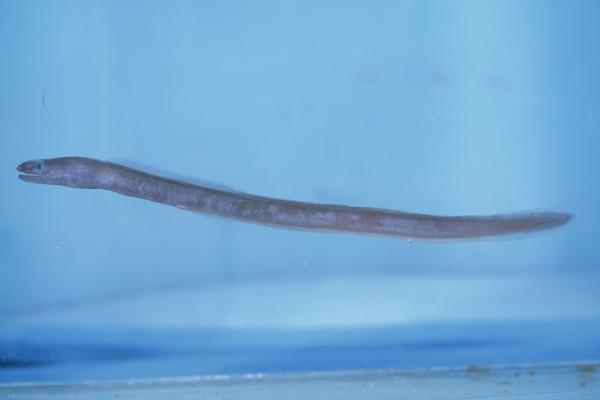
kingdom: Animalia
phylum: Chordata
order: Anguilliformes
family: Chlopsidae
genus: Kaupichthys
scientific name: Kaupichthys diodontus
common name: Common false moray
